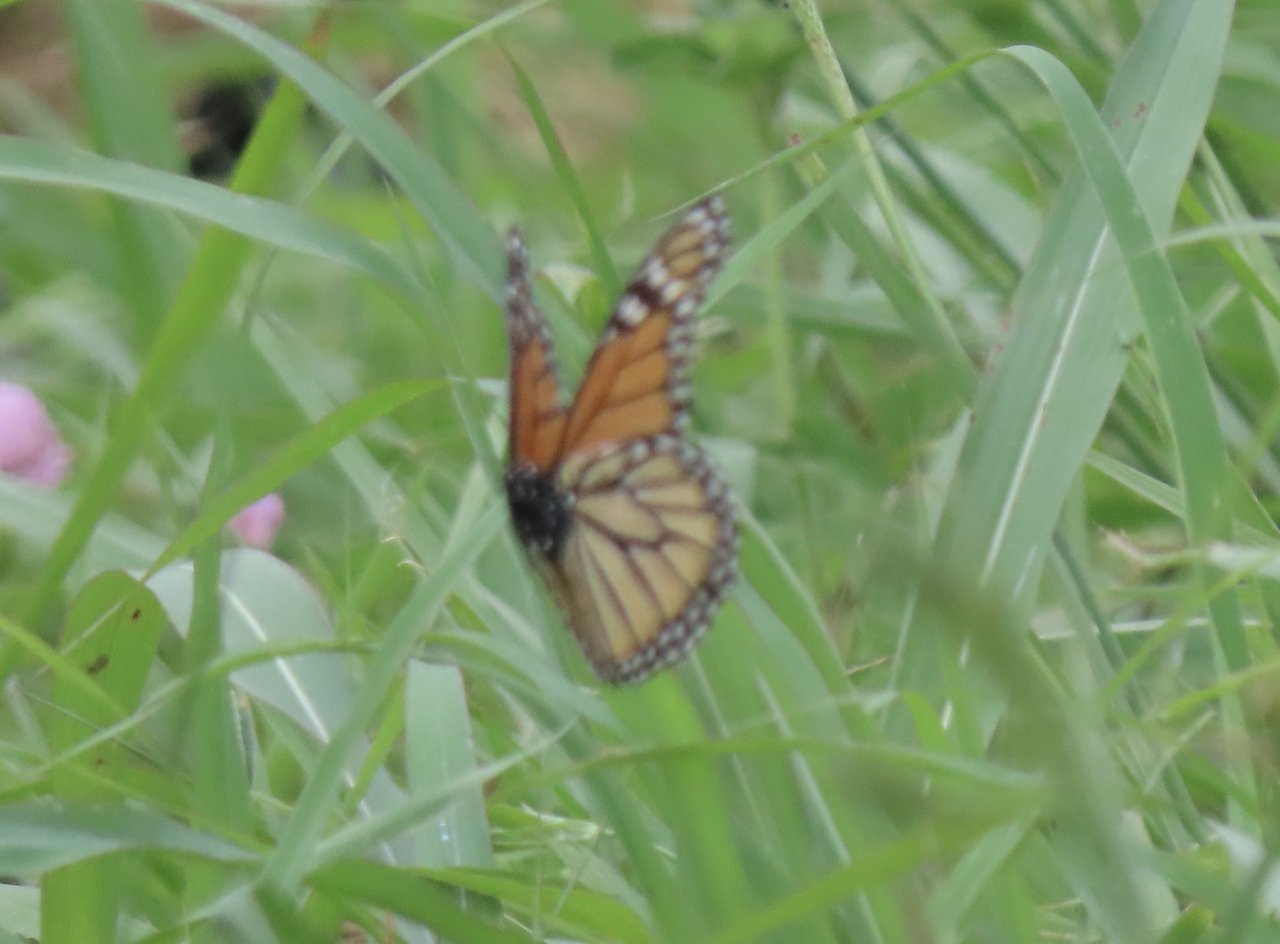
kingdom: Animalia
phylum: Arthropoda
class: Insecta
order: Lepidoptera
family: Nymphalidae
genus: Danaus
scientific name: Danaus plexippus
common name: Monarch
